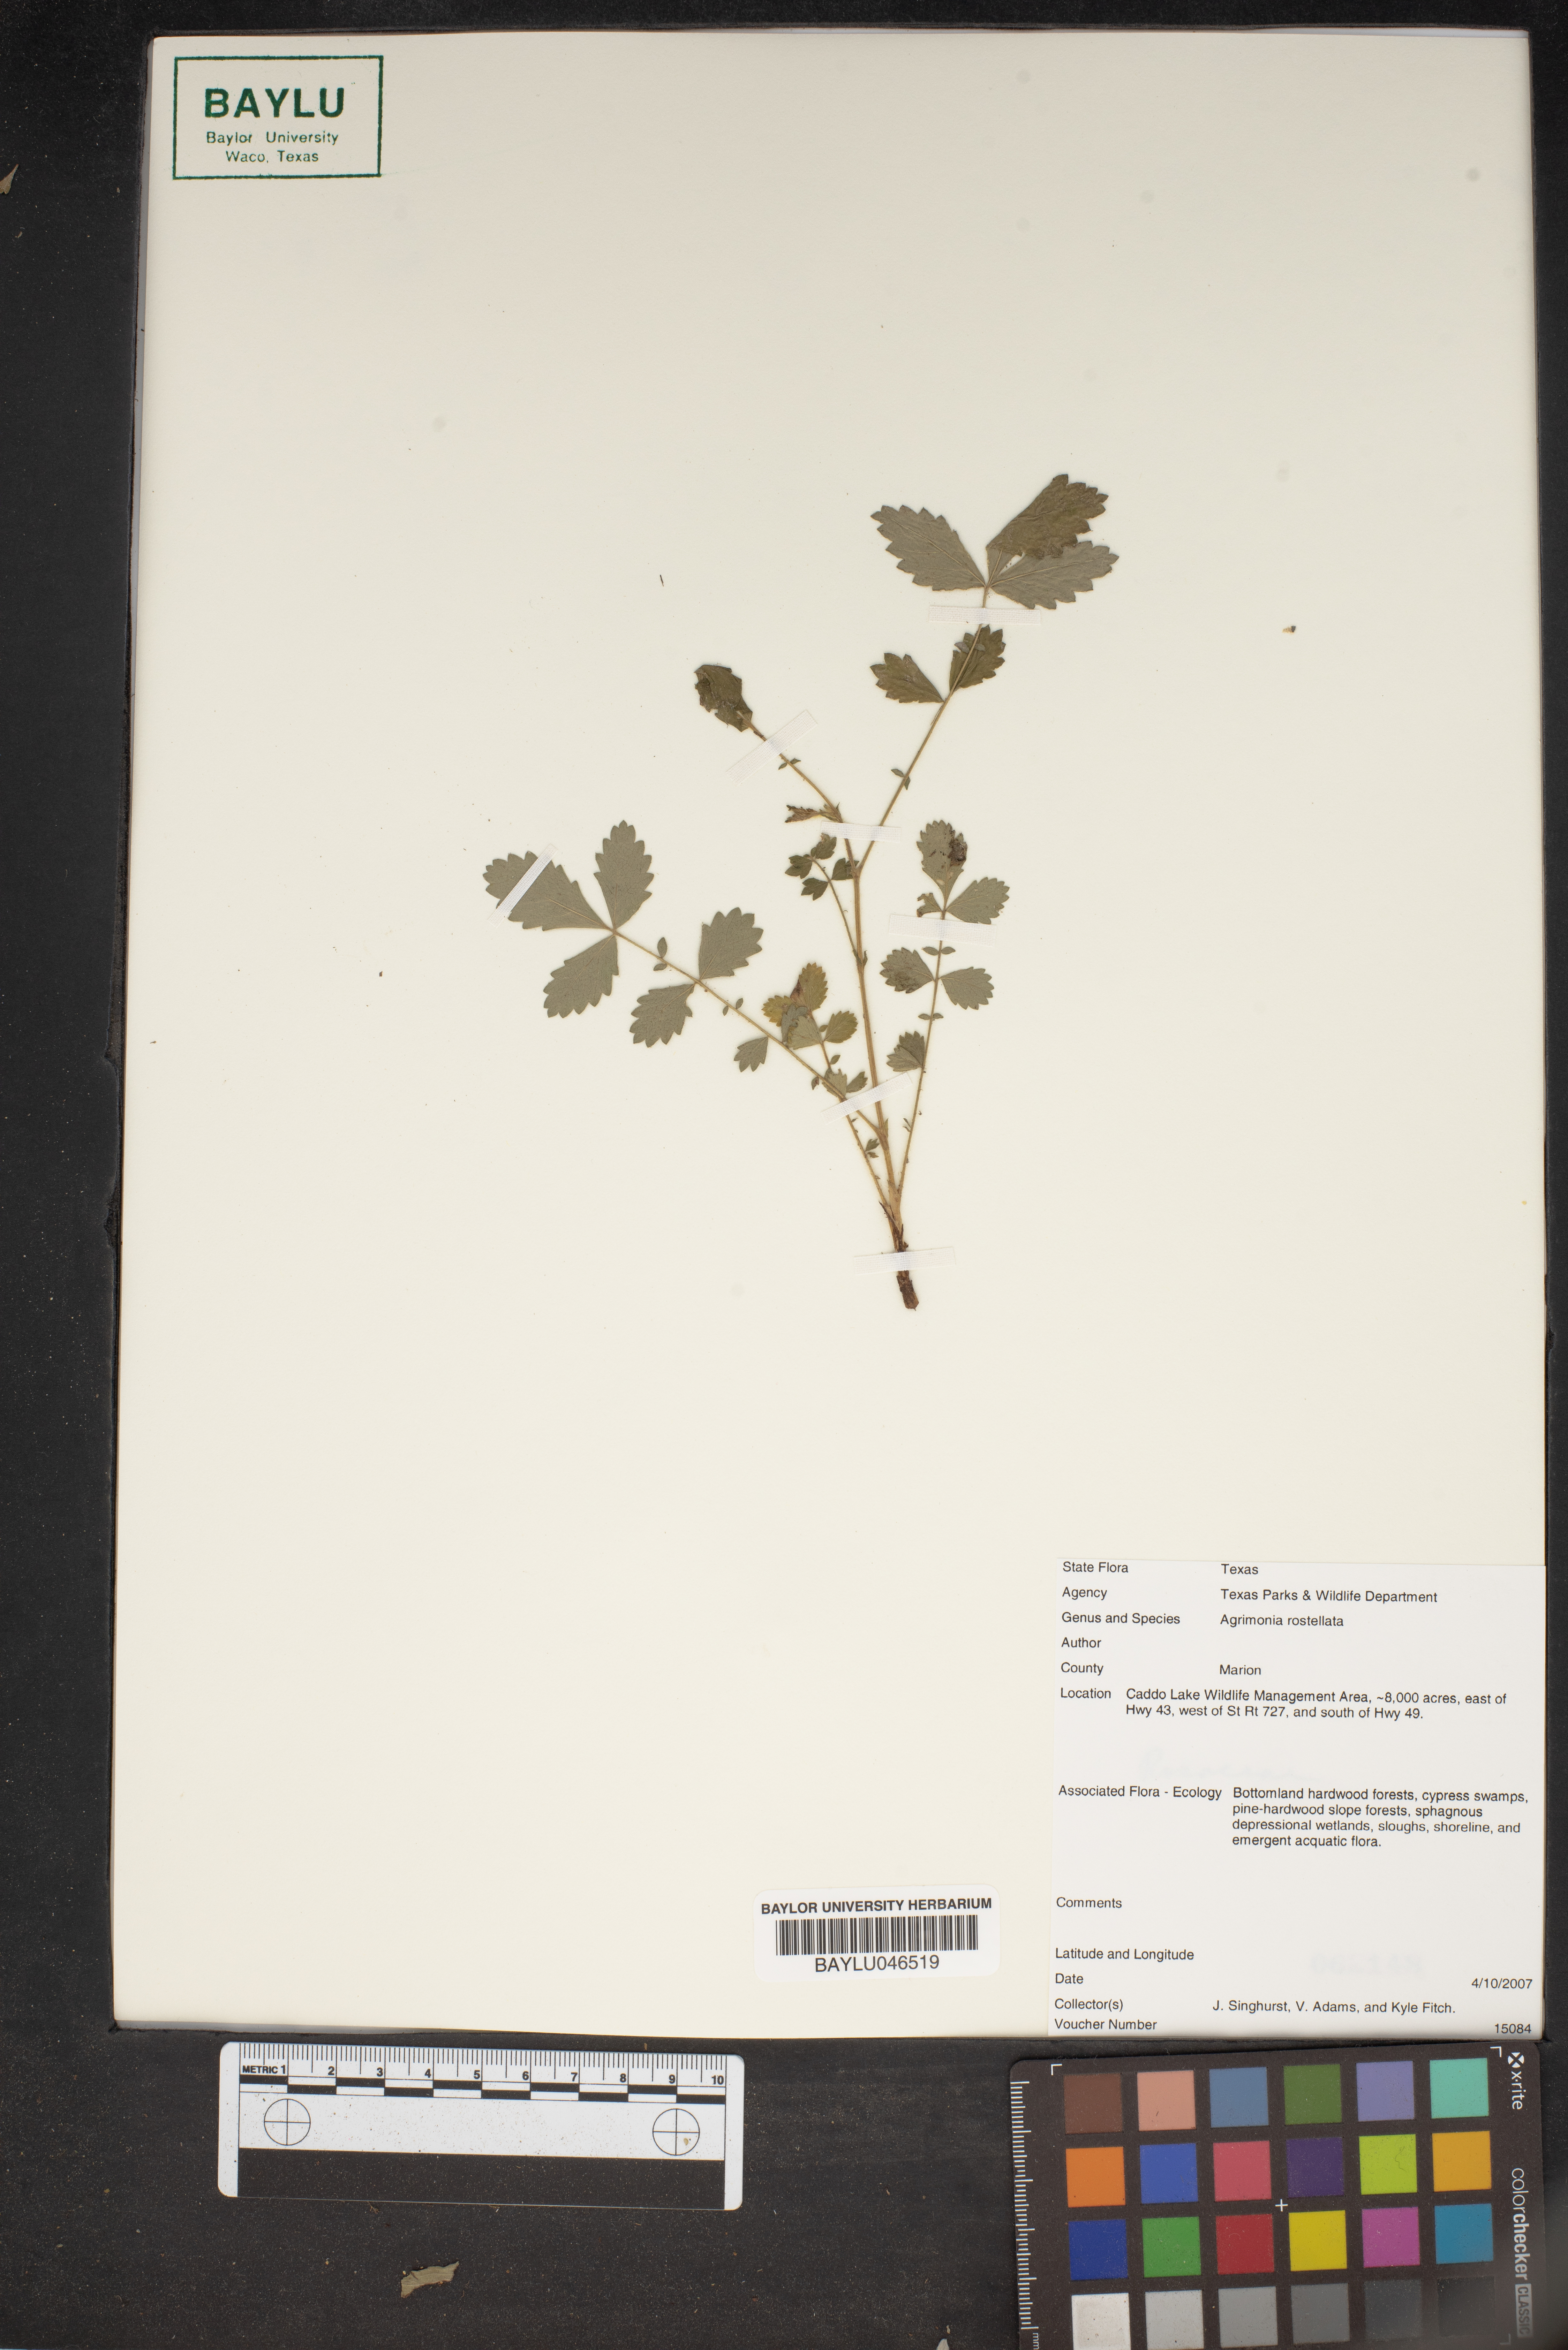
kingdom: Plantae
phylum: Tracheophyta
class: Magnoliopsida
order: Rosales
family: Rosaceae
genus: Agrimonia
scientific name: Agrimonia rostellata
